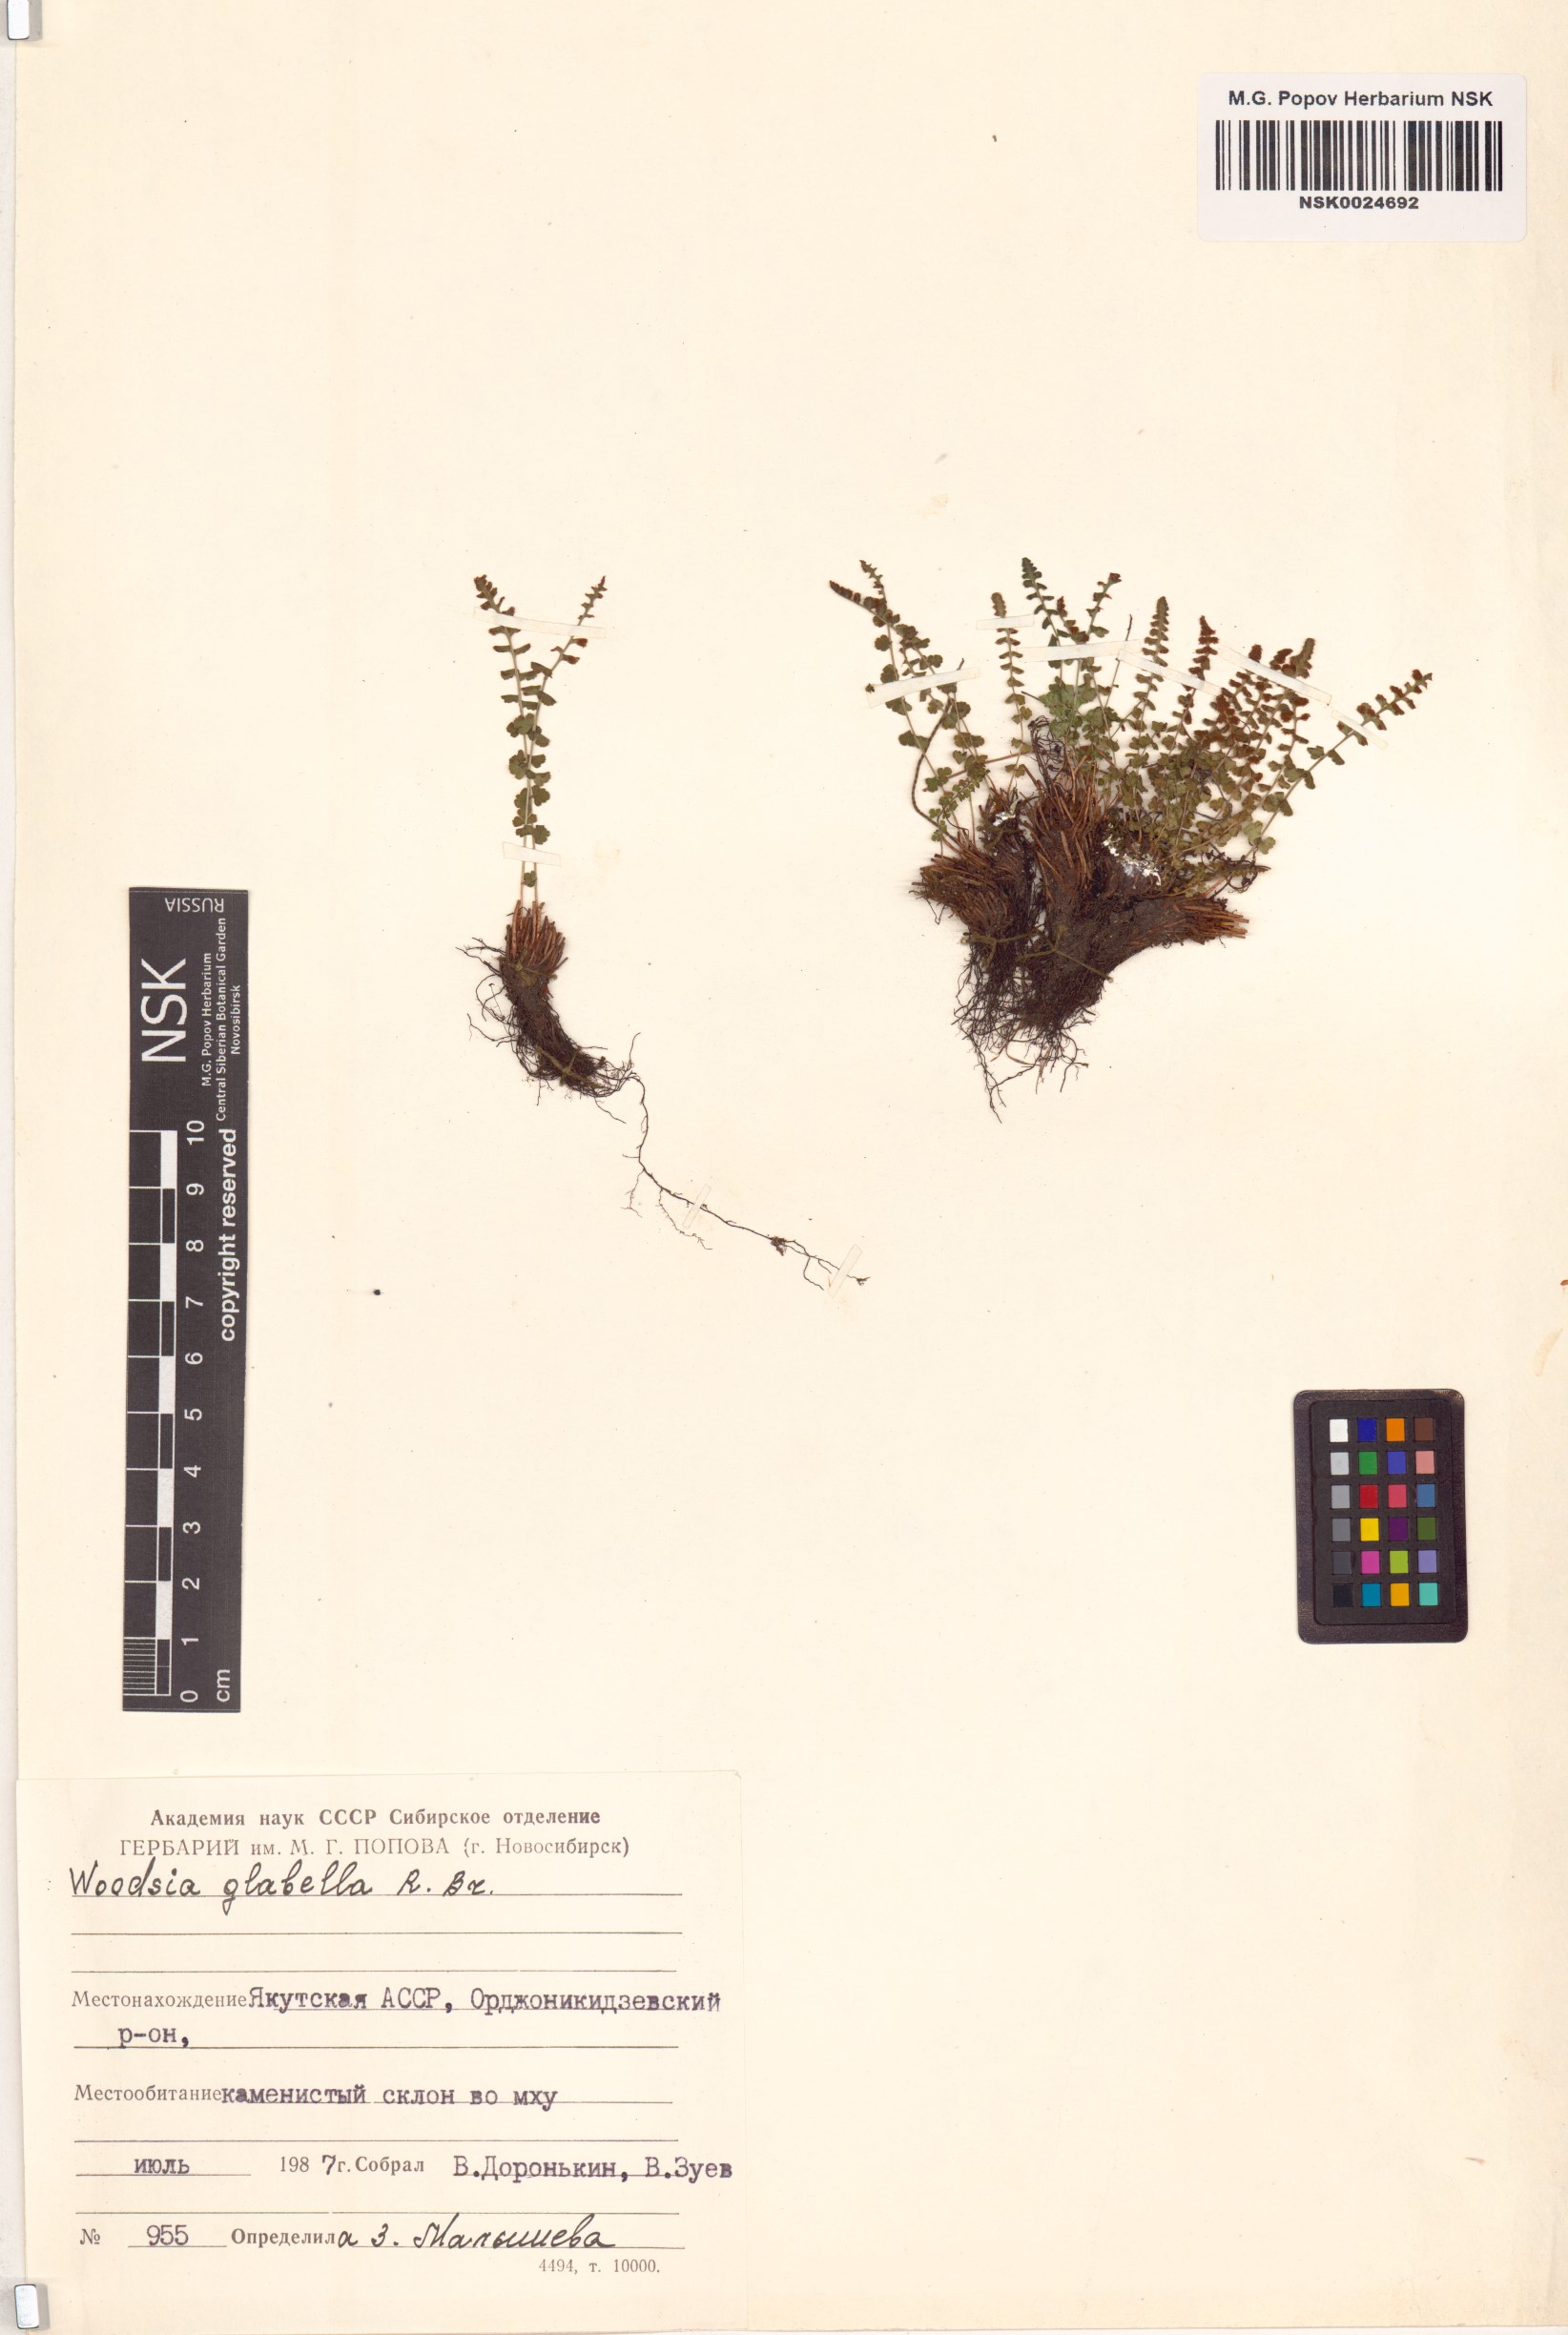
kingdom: Plantae
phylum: Tracheophyta
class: Polypodiopsida
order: Polypodiales
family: Woodsiaceae
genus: Woodsia
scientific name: Woodsia glabella
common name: Smooth woodsia
